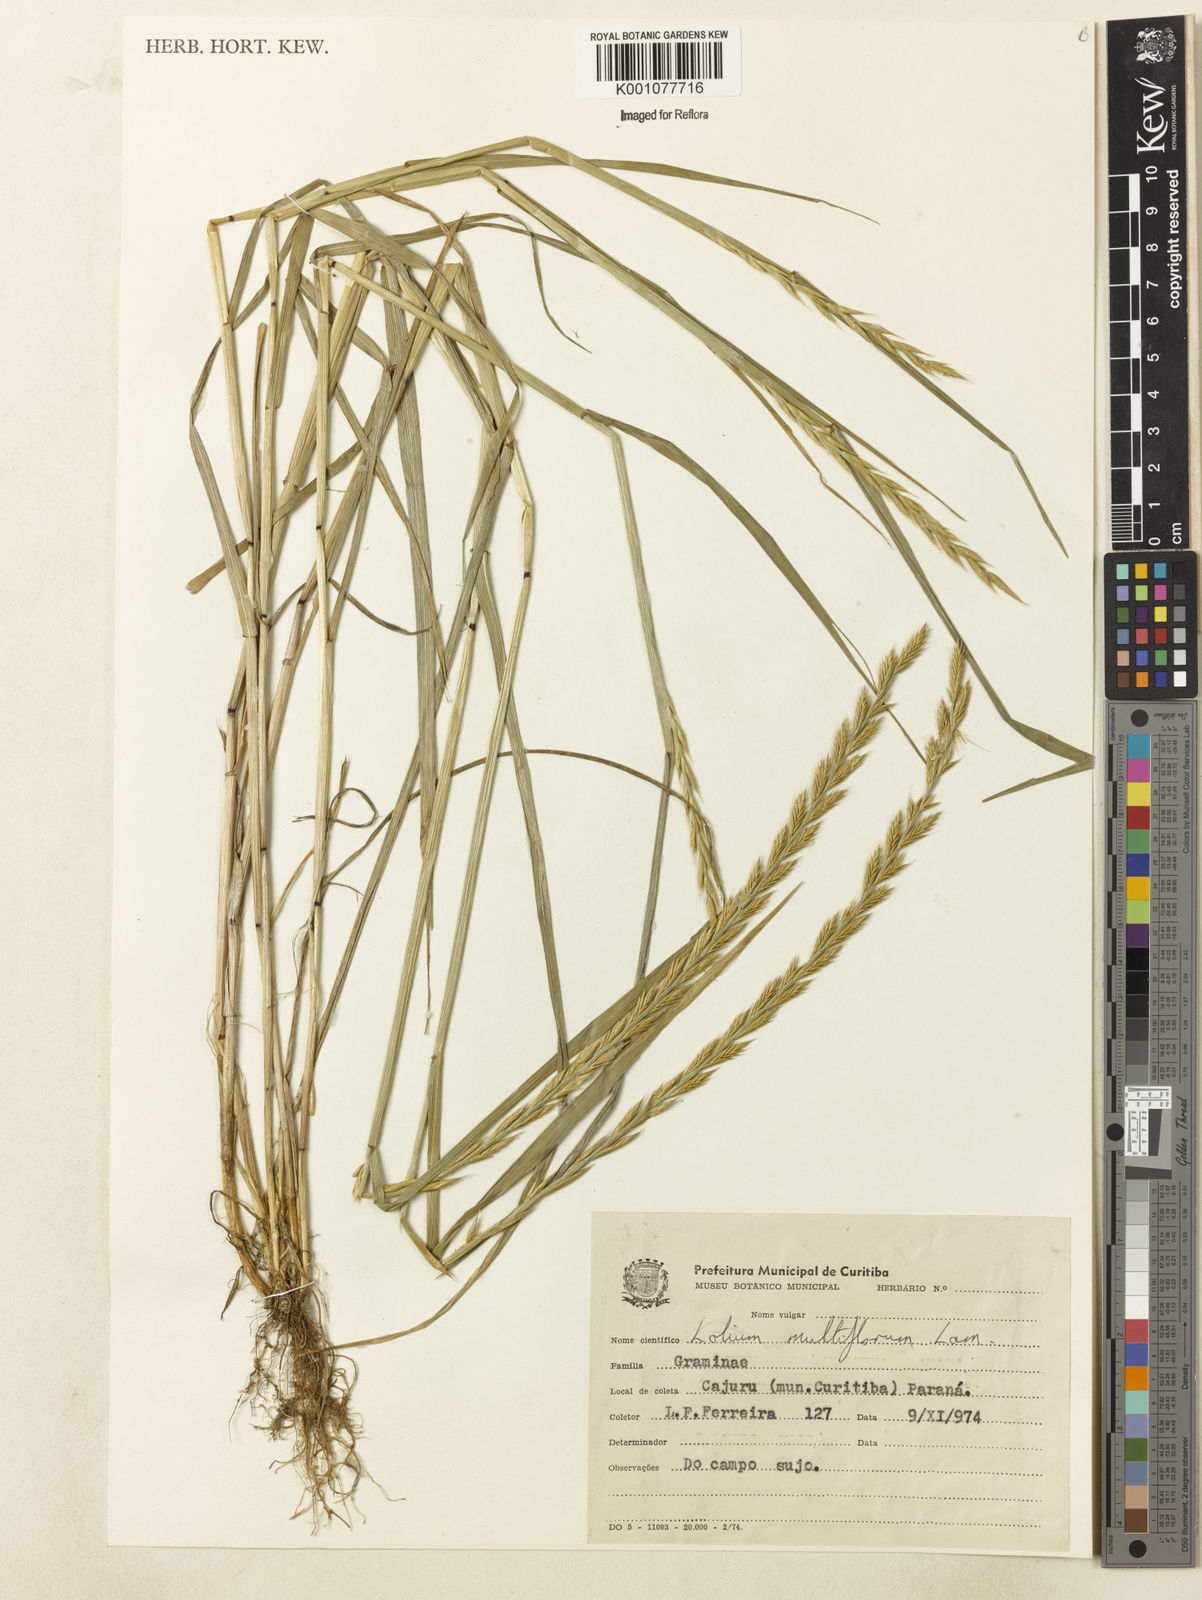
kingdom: Plantae
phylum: Tracheophyta
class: Liliopsida
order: Poales
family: Poaceae
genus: Lolium
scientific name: Lolium multiflorum
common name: Annual ryegrass
